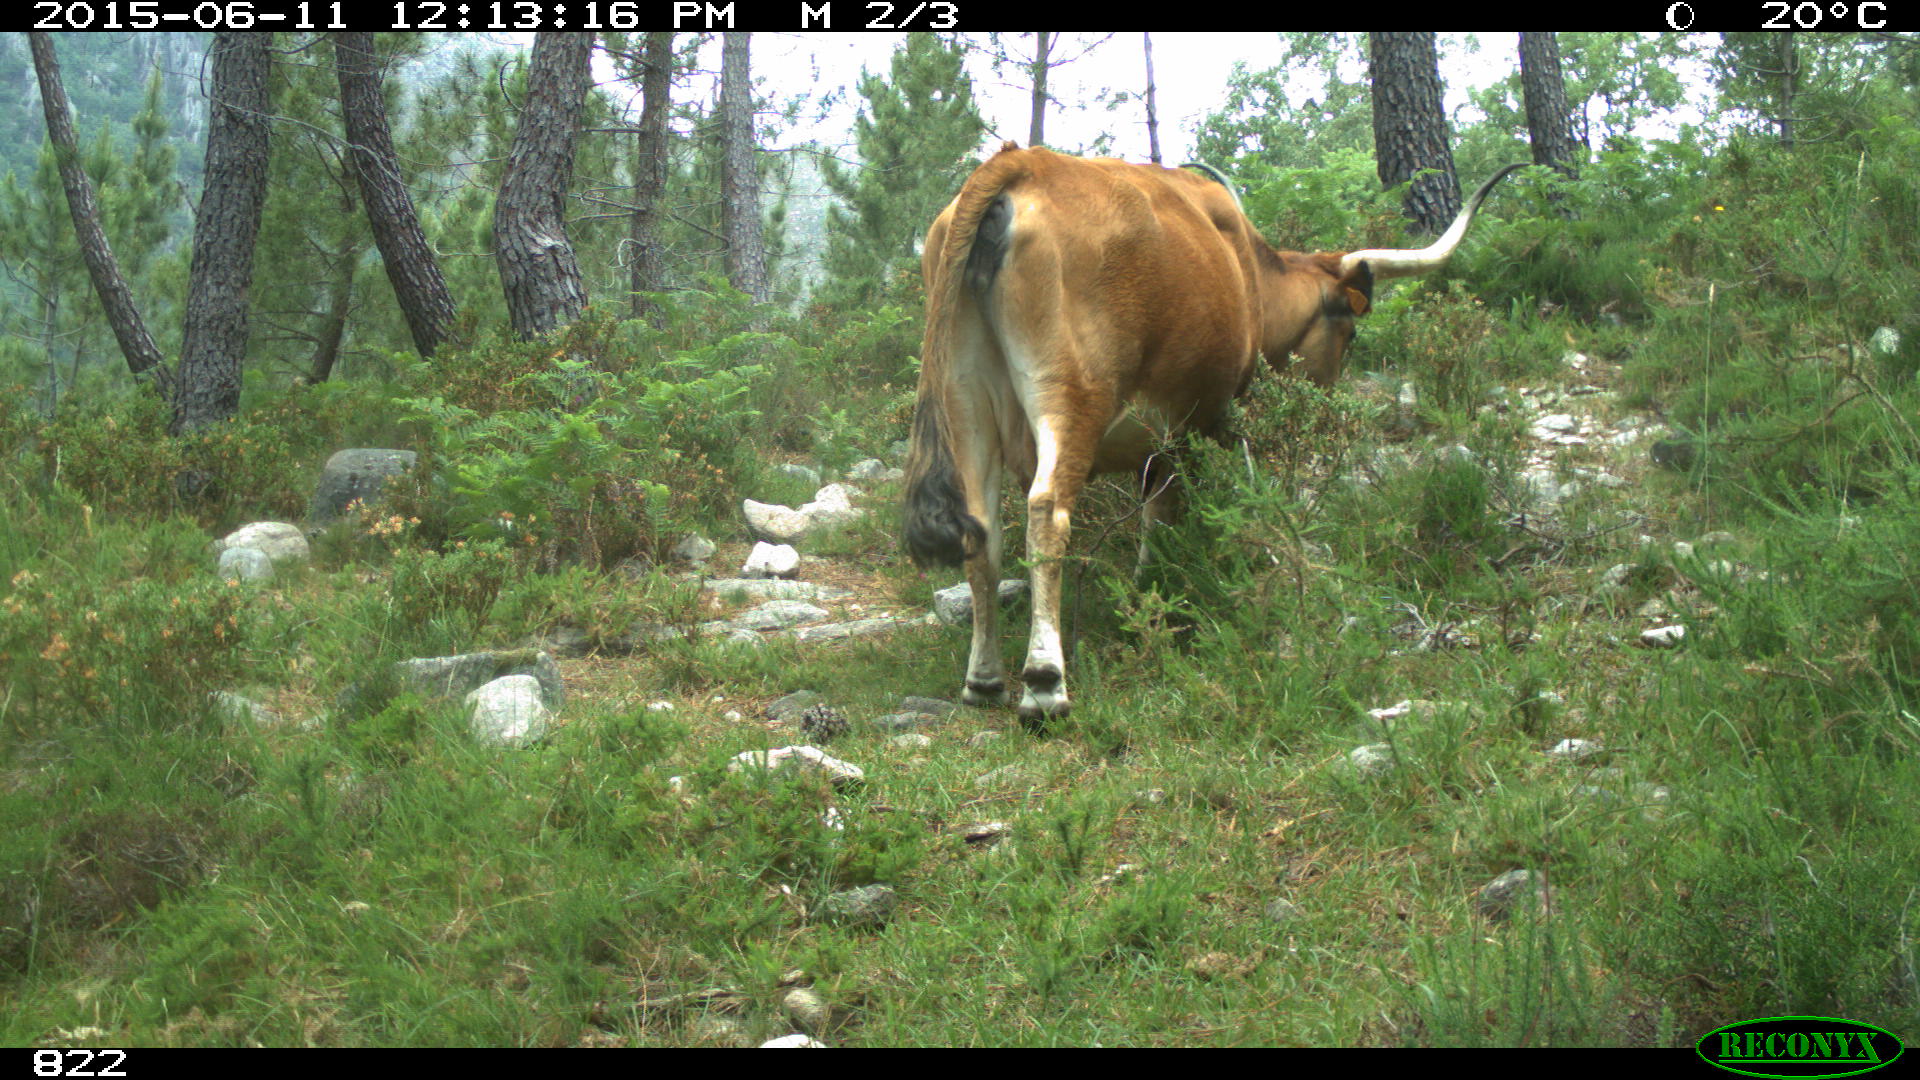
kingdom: Animalia
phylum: Chordata
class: Mammalia
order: Artiodactyla
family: Bovidae
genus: Bos
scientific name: Bos taurus
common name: Domesticated cattle
